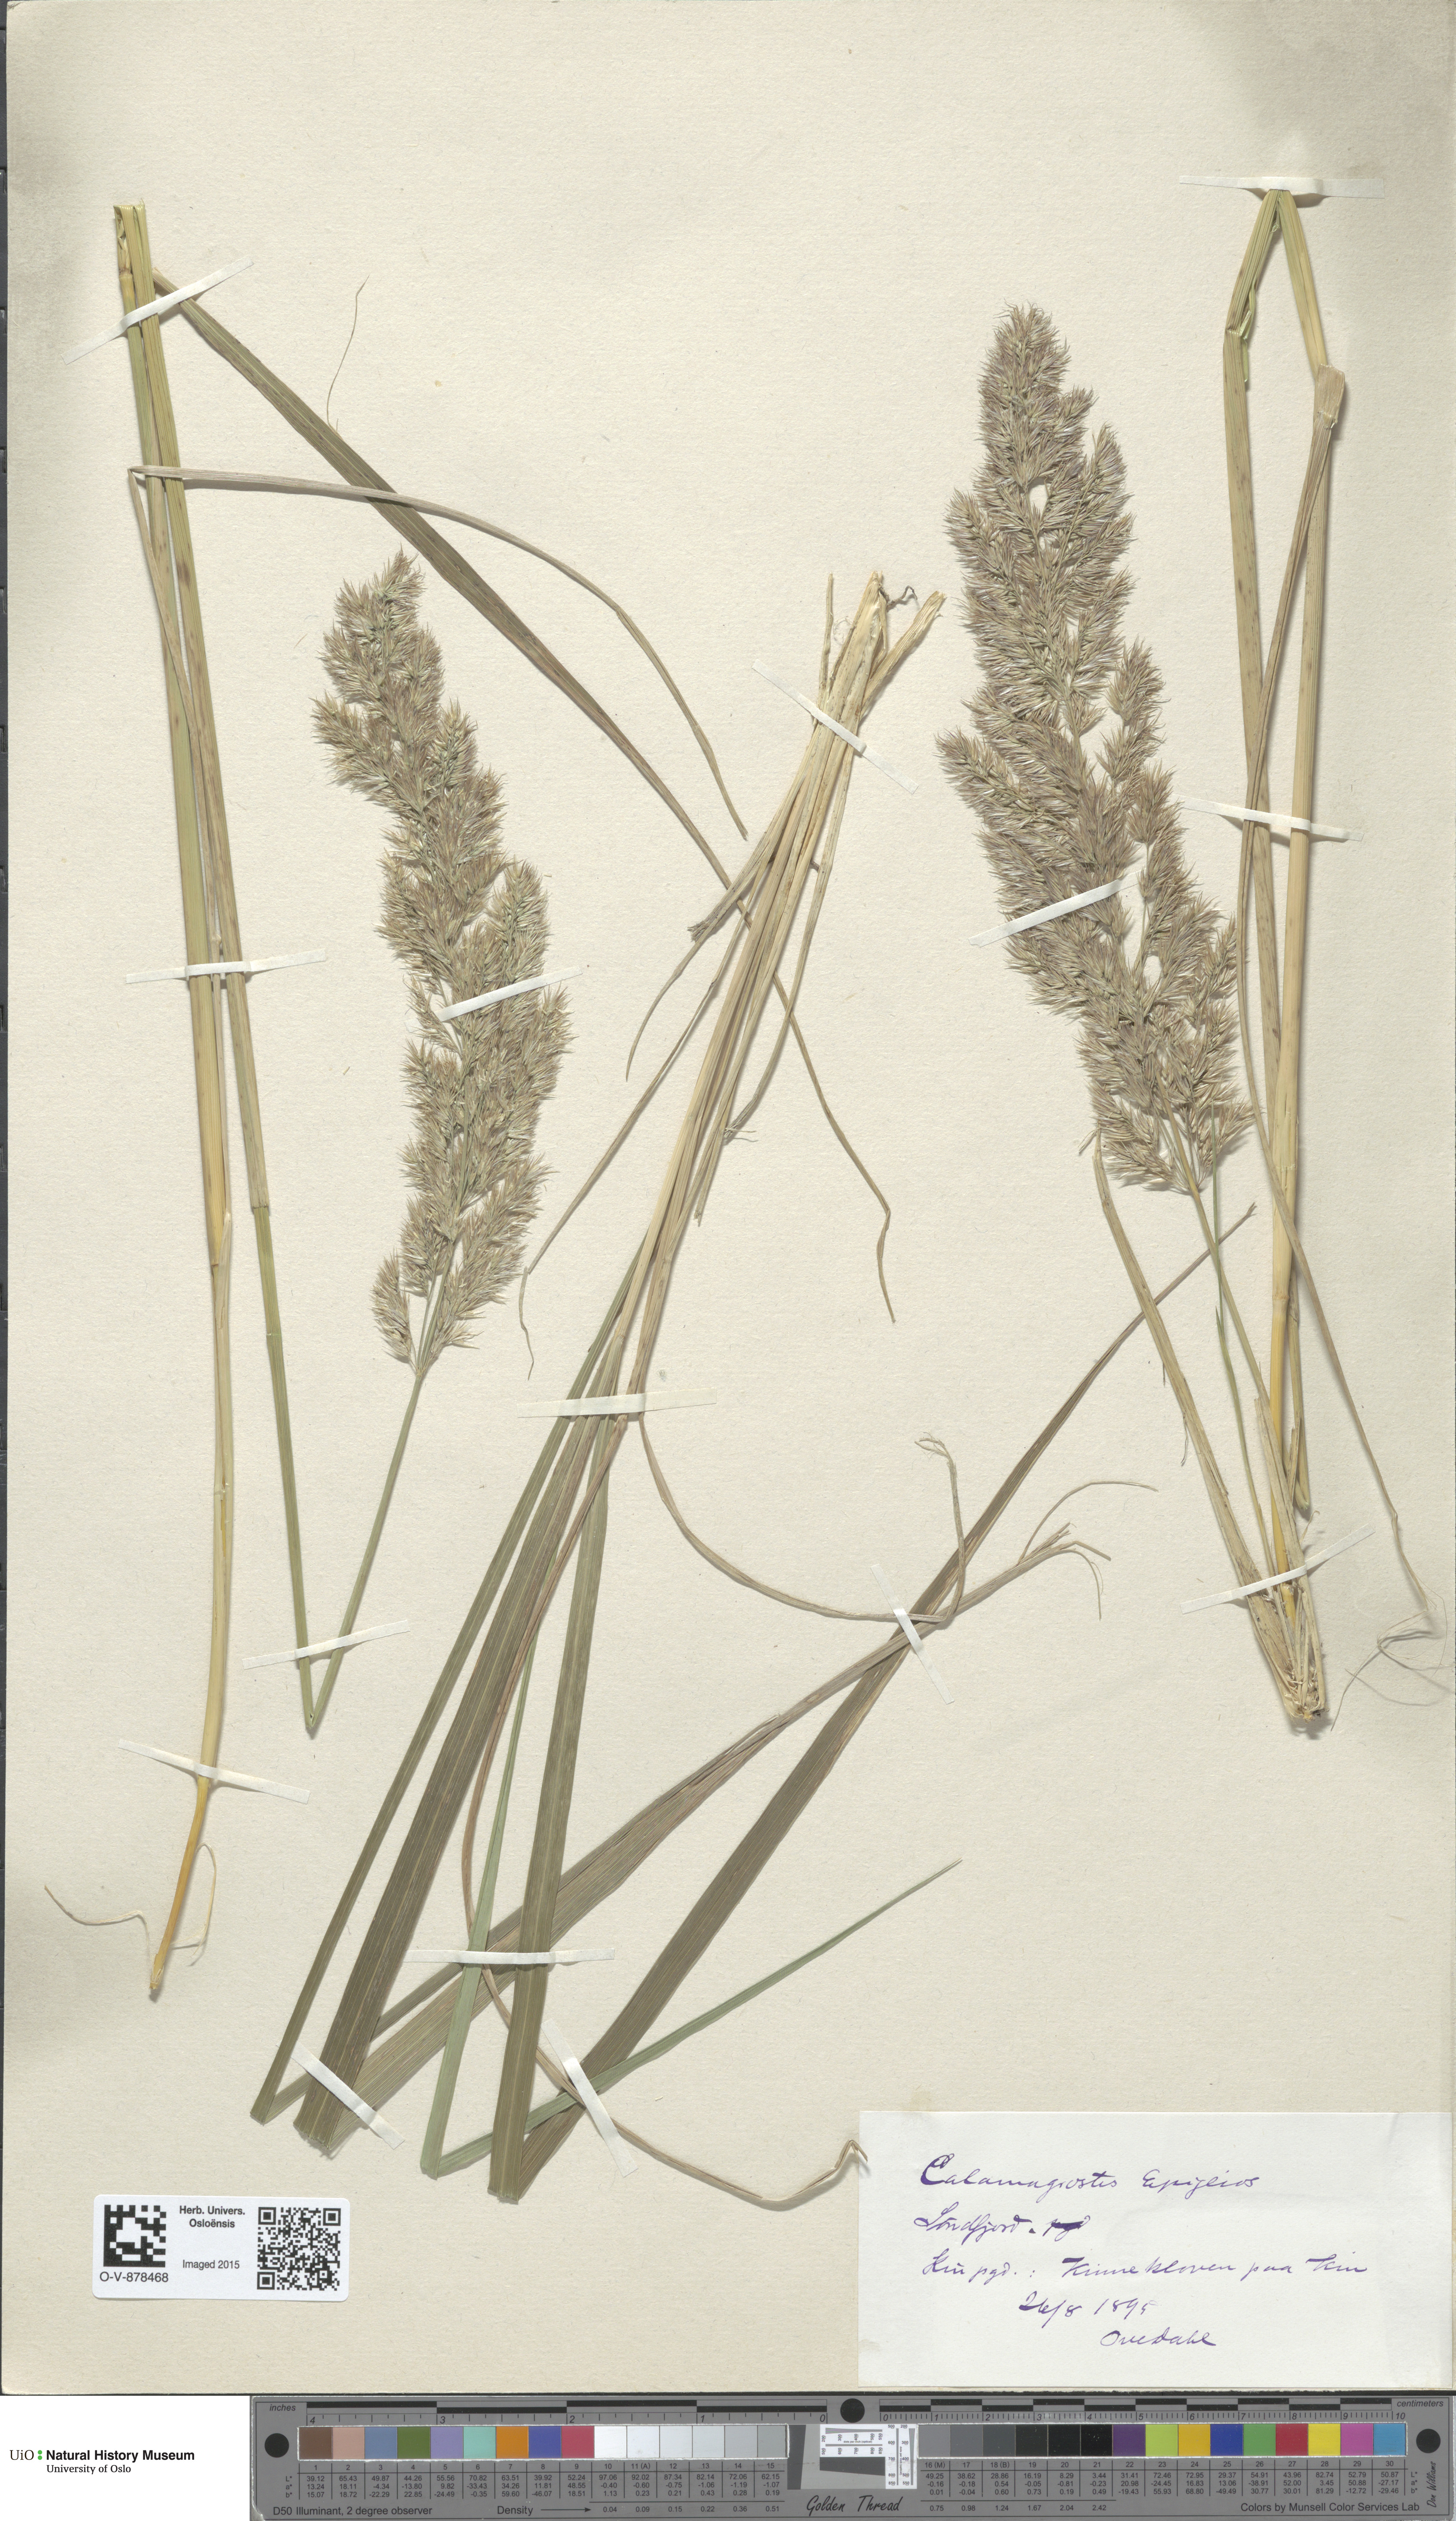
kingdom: Plantae
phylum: Tracheophyta
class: Liliopsida
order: Poales
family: Poaceae
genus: Calamagrostis
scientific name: Calamagrostis epigejos
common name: Wood small-reed
